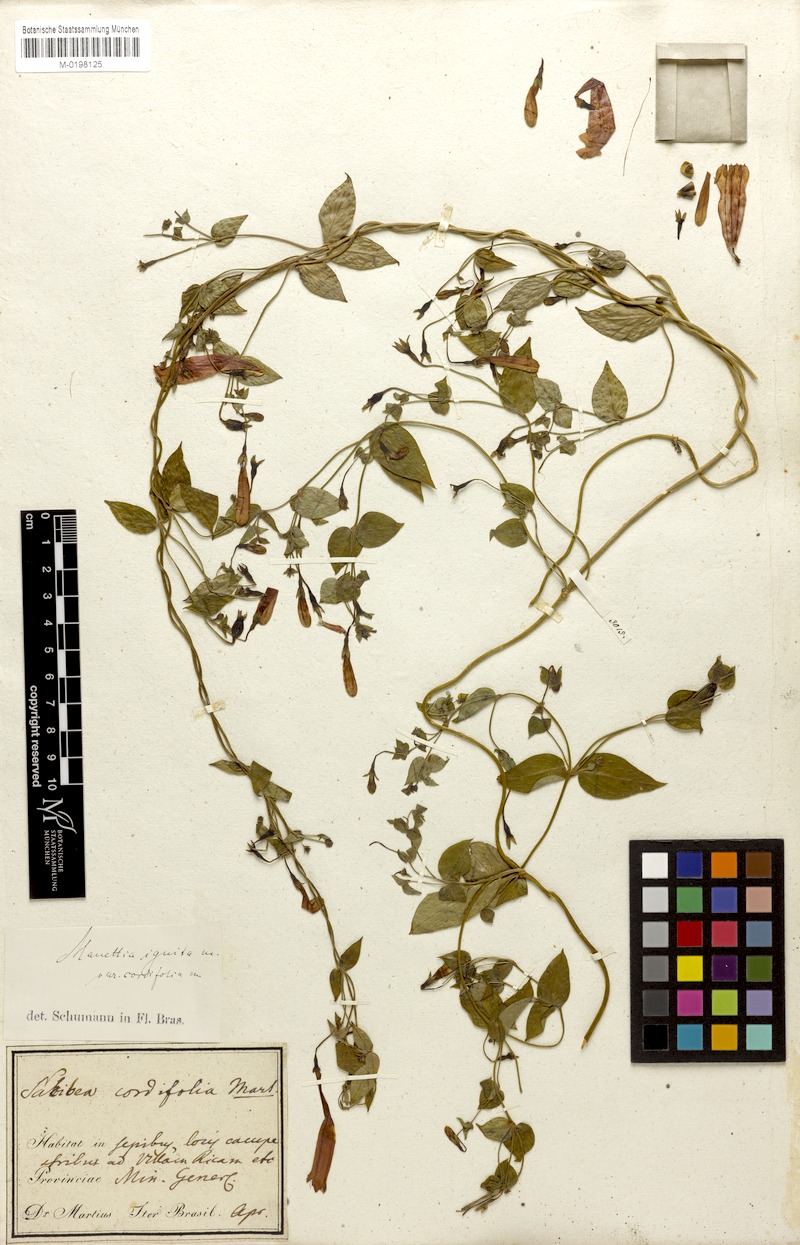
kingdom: Plantae
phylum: Tracheophyta
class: Magnoliopsida
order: Gentianales
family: Rubiaceae
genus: Manettia
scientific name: Manettia cordifolia
